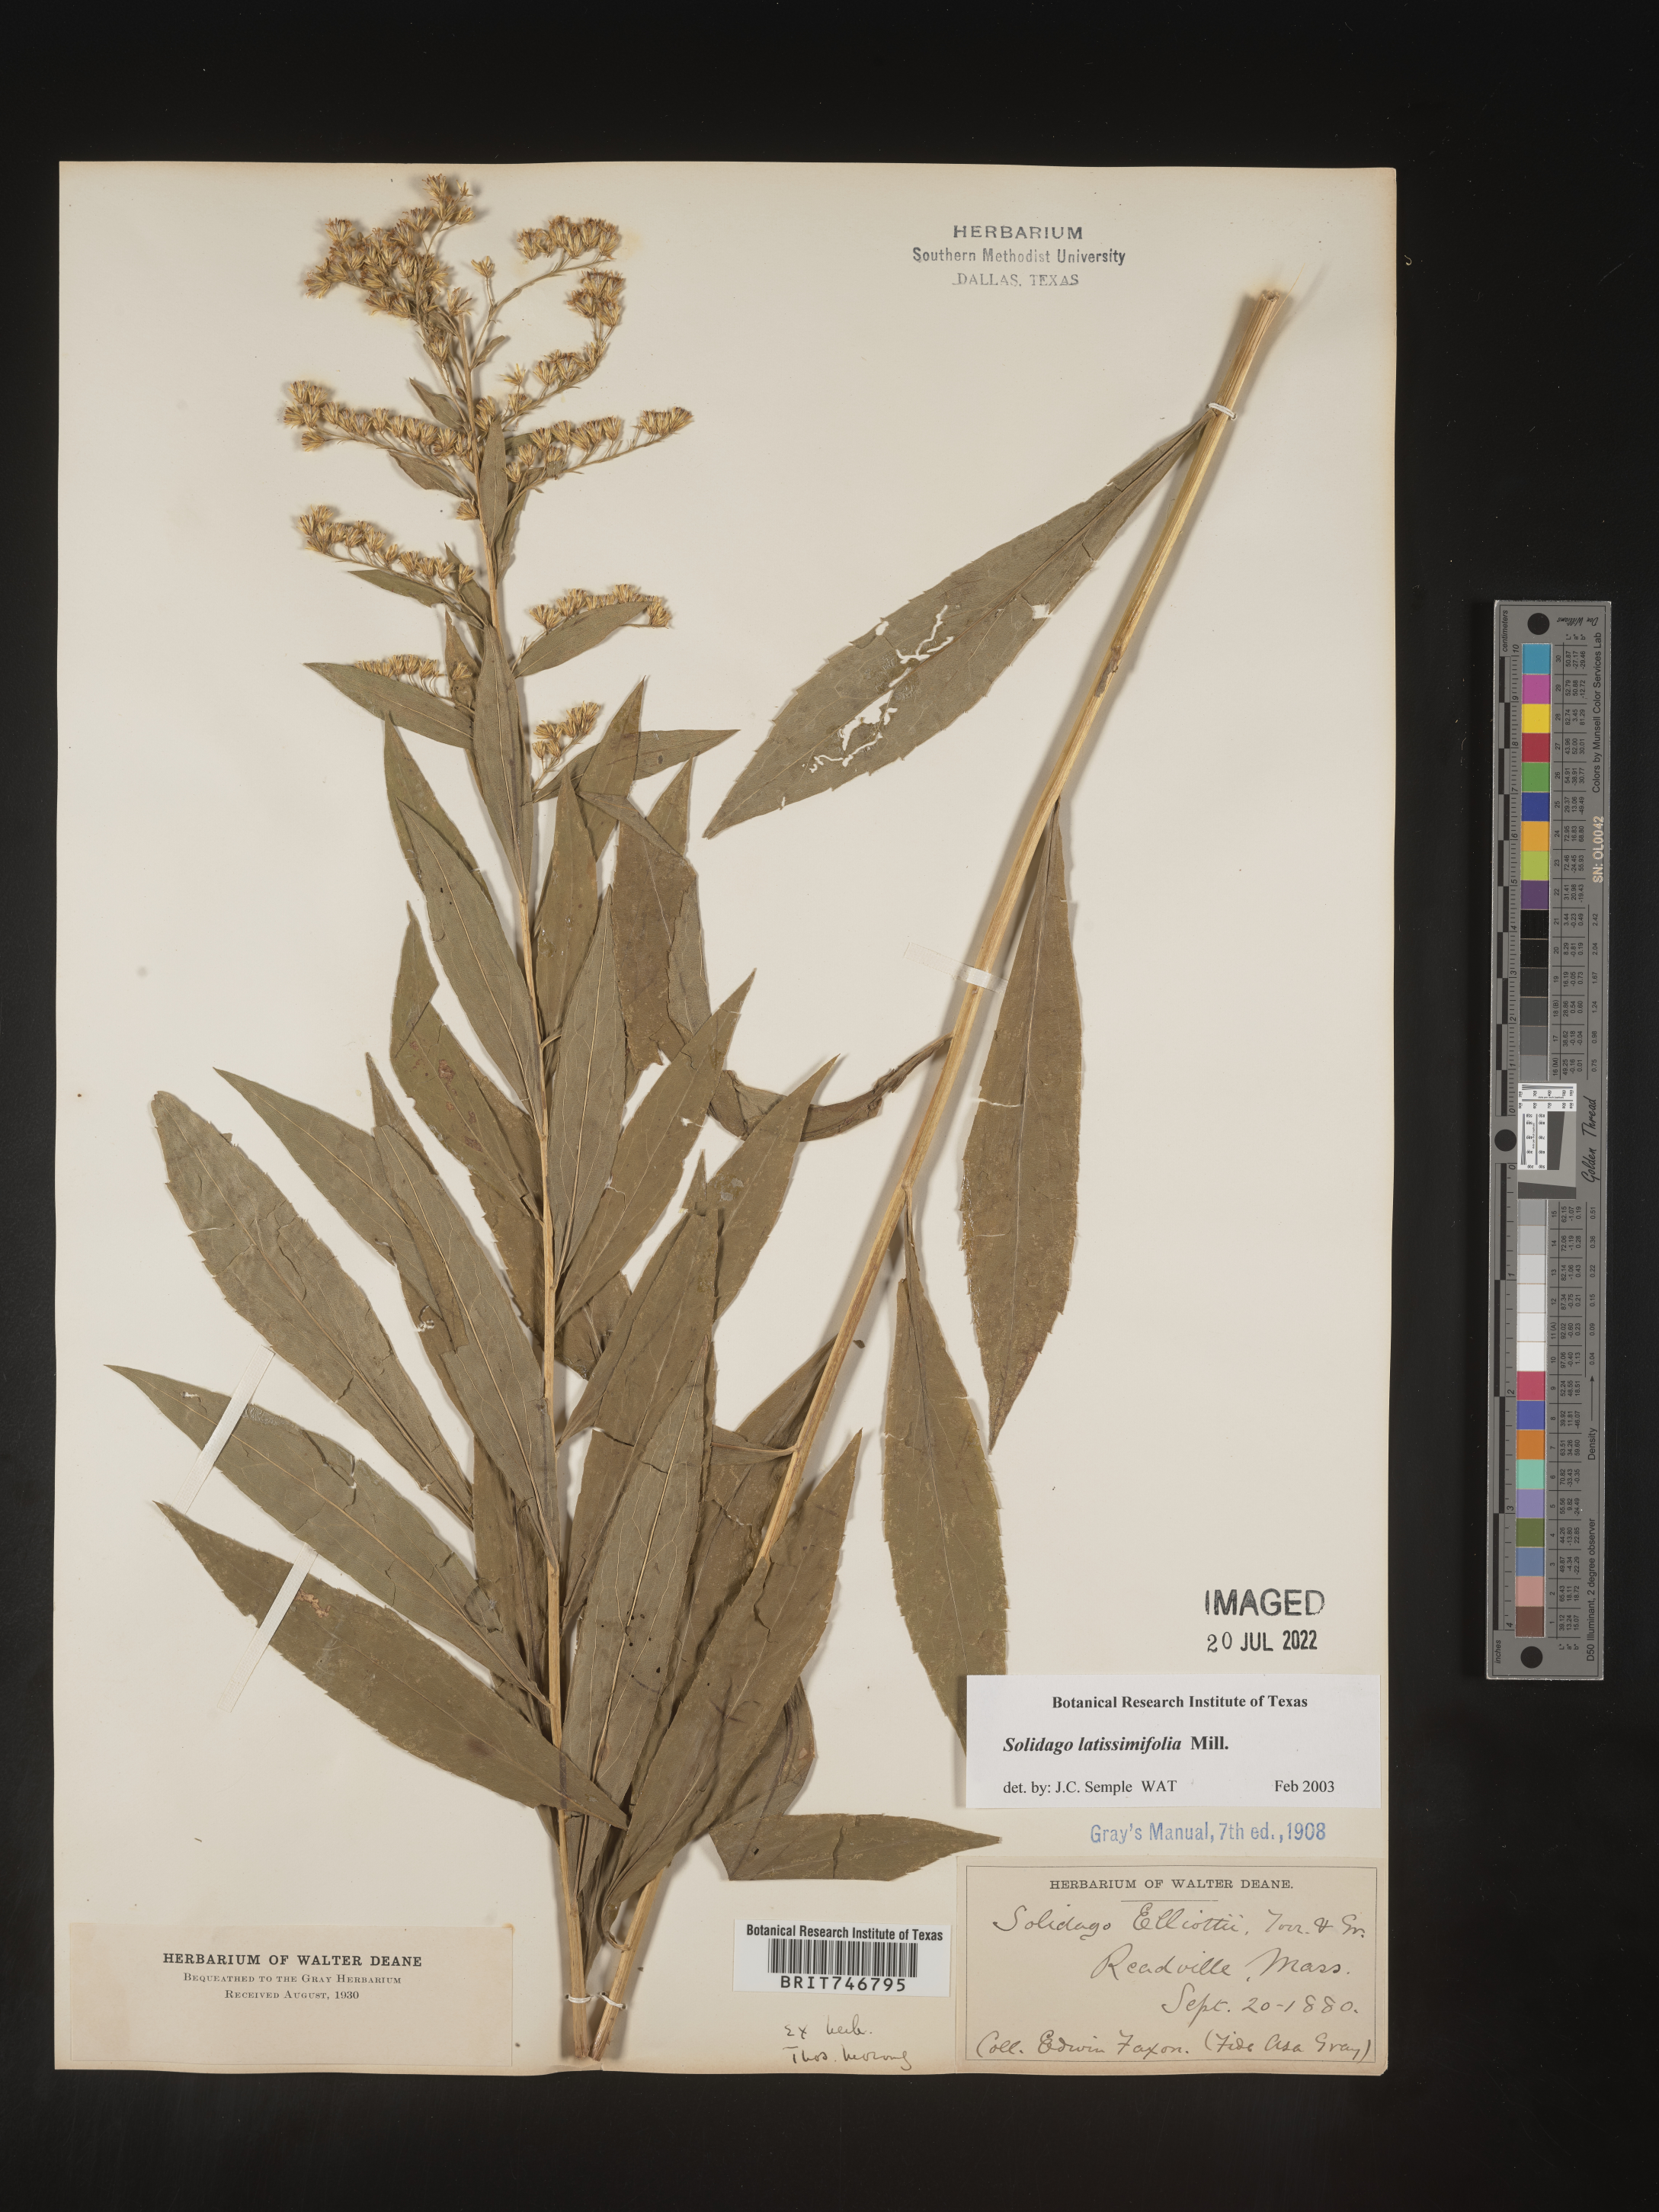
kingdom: Plantae
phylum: Tracheophyta
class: Magnoliopsida
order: Asterales
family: Asteraceae
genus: Solidago
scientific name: Solidago latissimifolia
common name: Elliott's goldenrod
